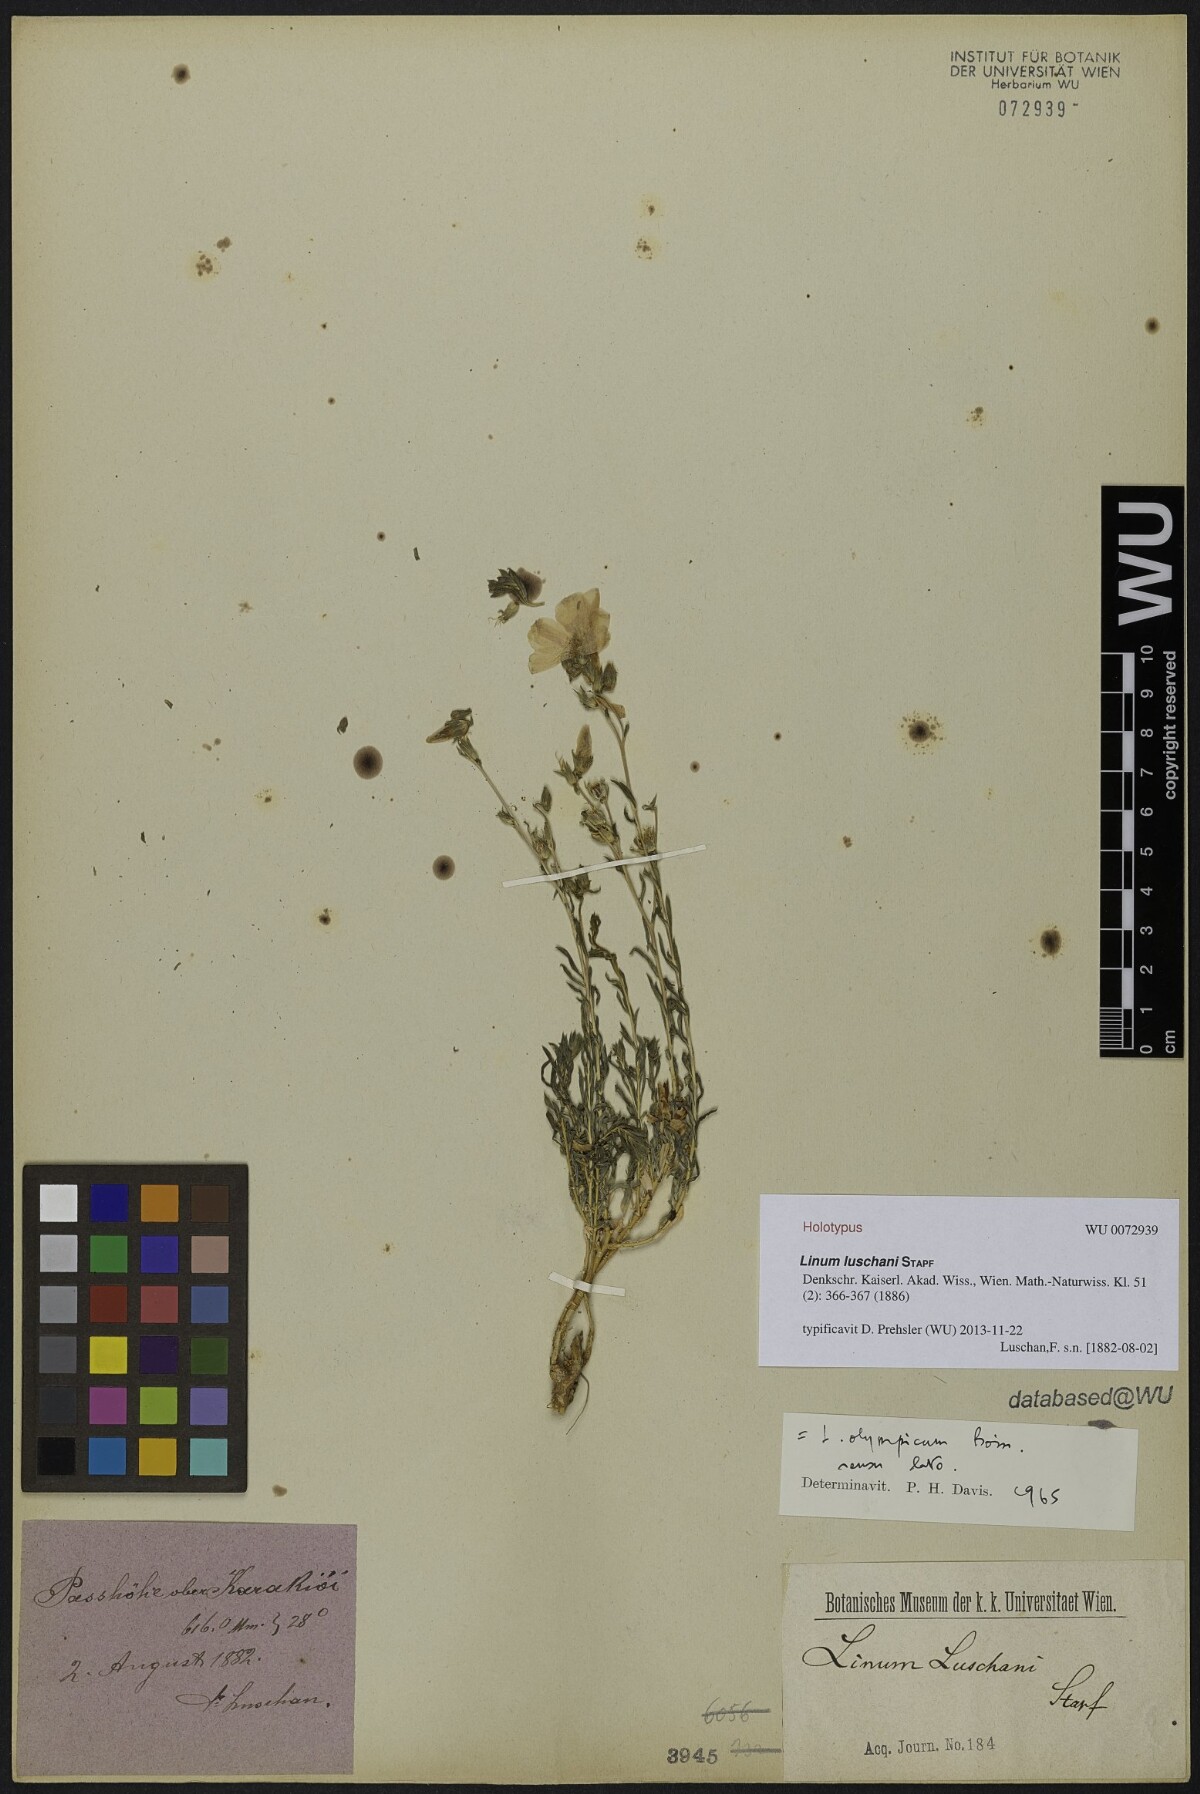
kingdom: Plantae
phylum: Tracheophyta
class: Magnoliopsida
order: Malpighiales
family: Linaceae
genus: Linum
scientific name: Linum luschasii
